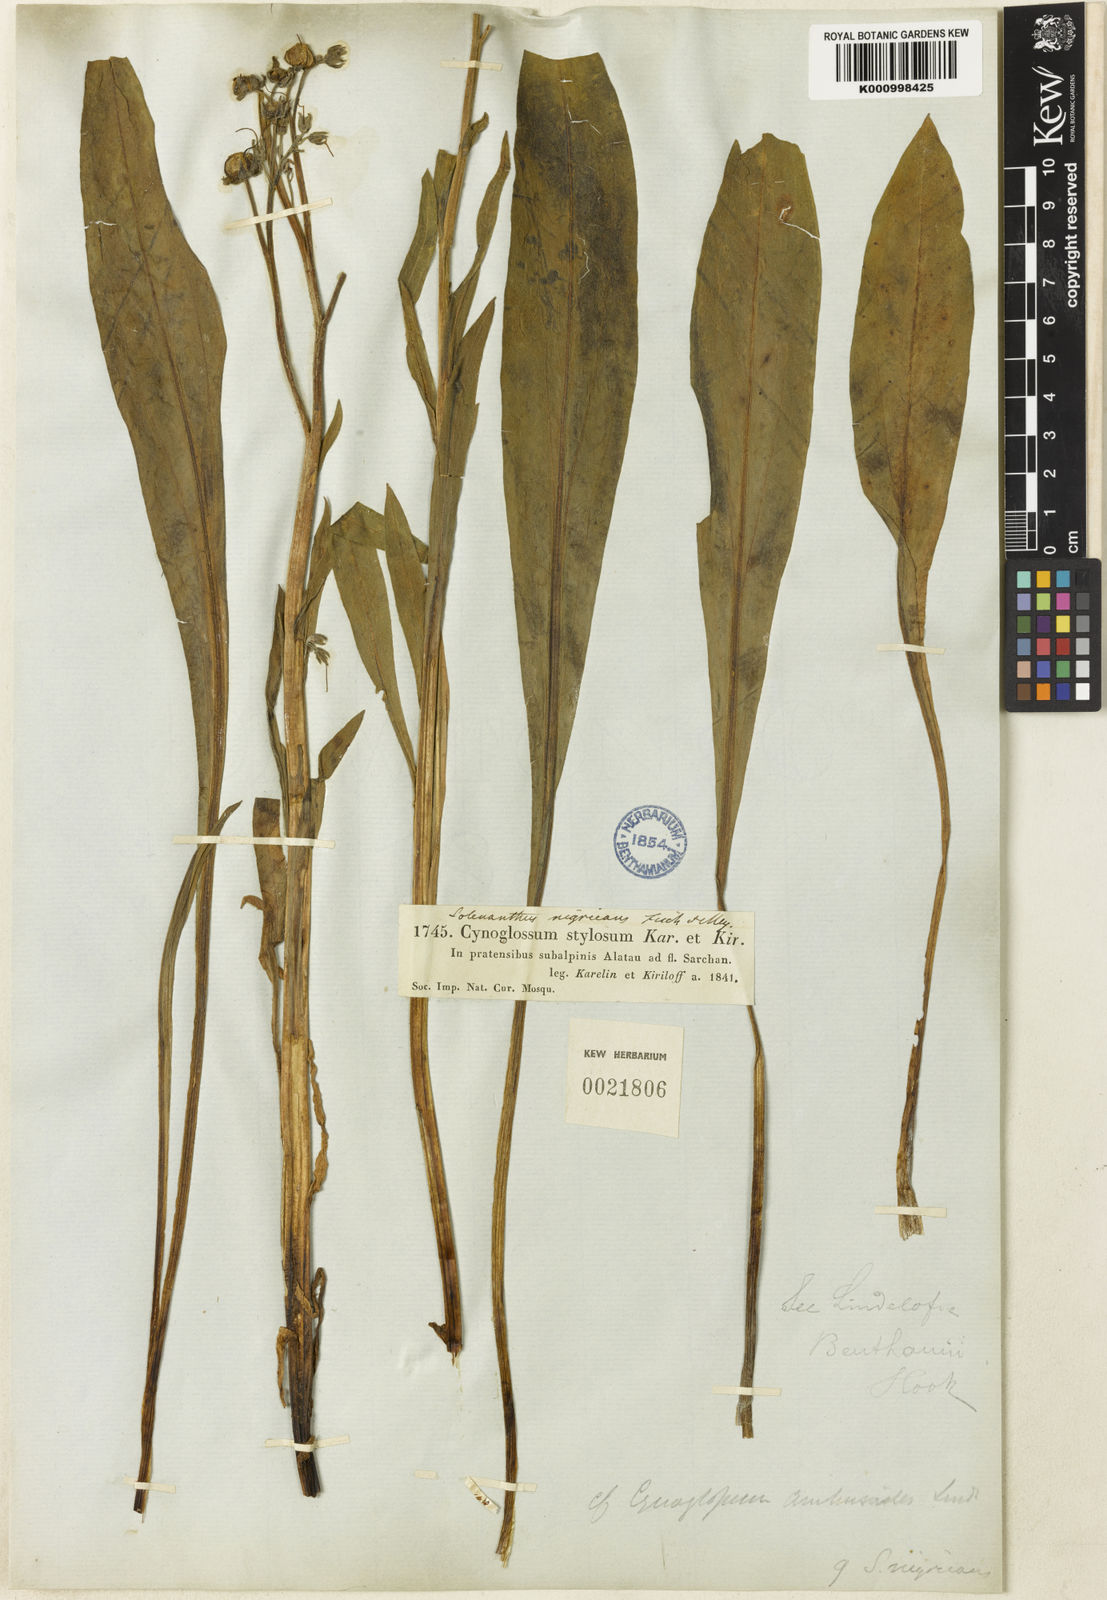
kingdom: Plantae
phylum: Tracheophyta
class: Magnoliopsida
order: Boraginales
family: Boraginaceae
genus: Lindelofia
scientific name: Lindelofia stylosa
